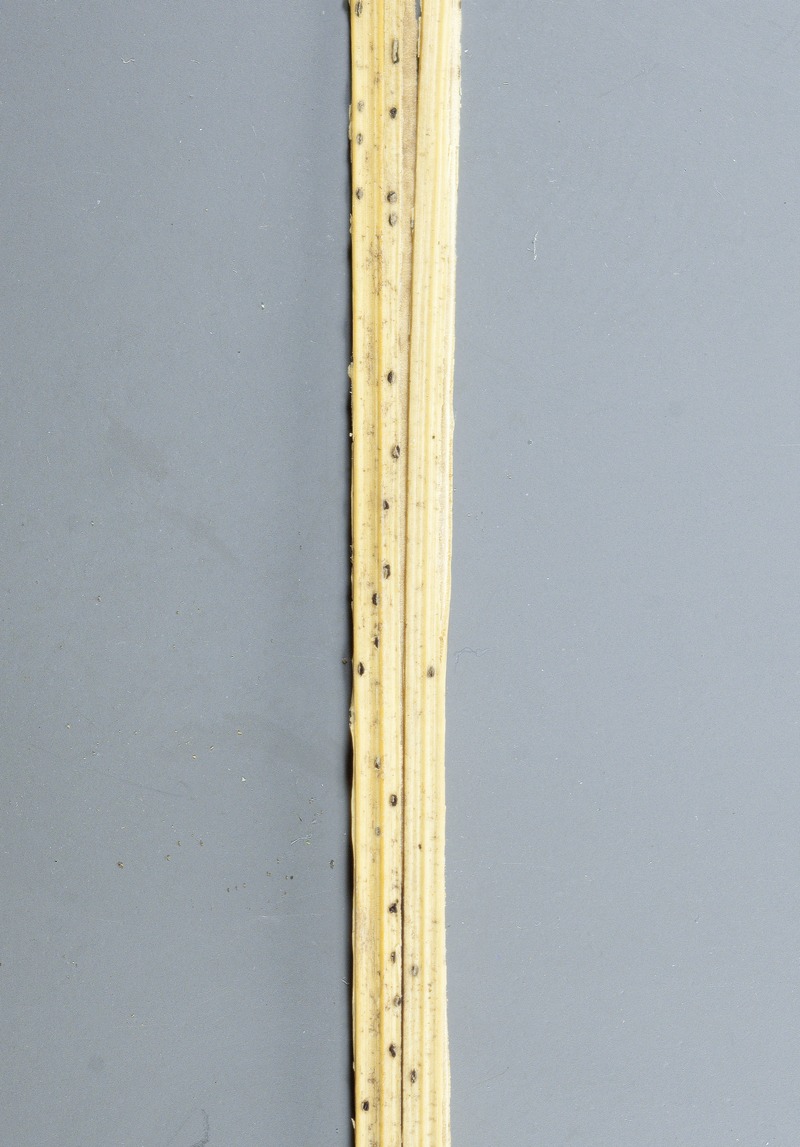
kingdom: Fungi
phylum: Ascomycota
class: Leotiomycetes
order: Helotiales
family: Dermateaceae
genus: Hysteropezizella
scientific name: Hysteropezizella fuscella
